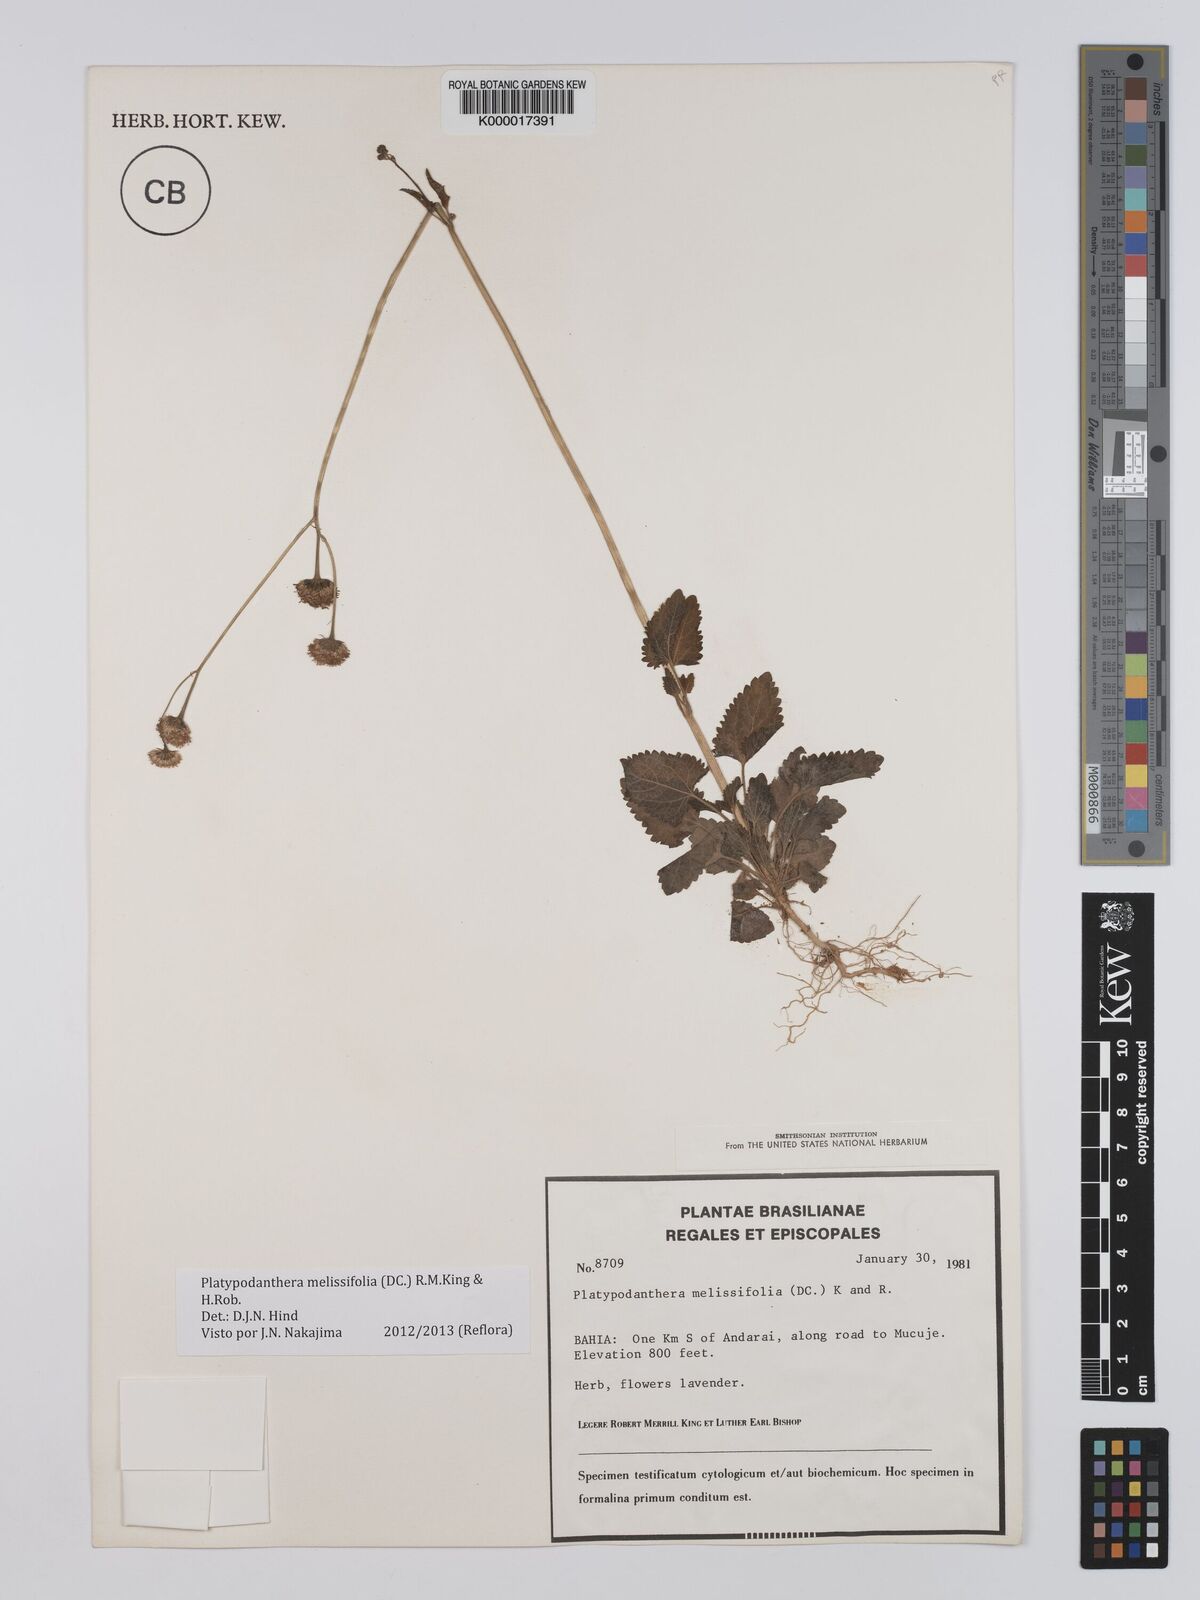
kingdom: Plantae
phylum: Tracheophyta
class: Magnoliopsida
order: Asterales
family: Asteraceae
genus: Platypodanthera
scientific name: Platypodanthera melissifolia
